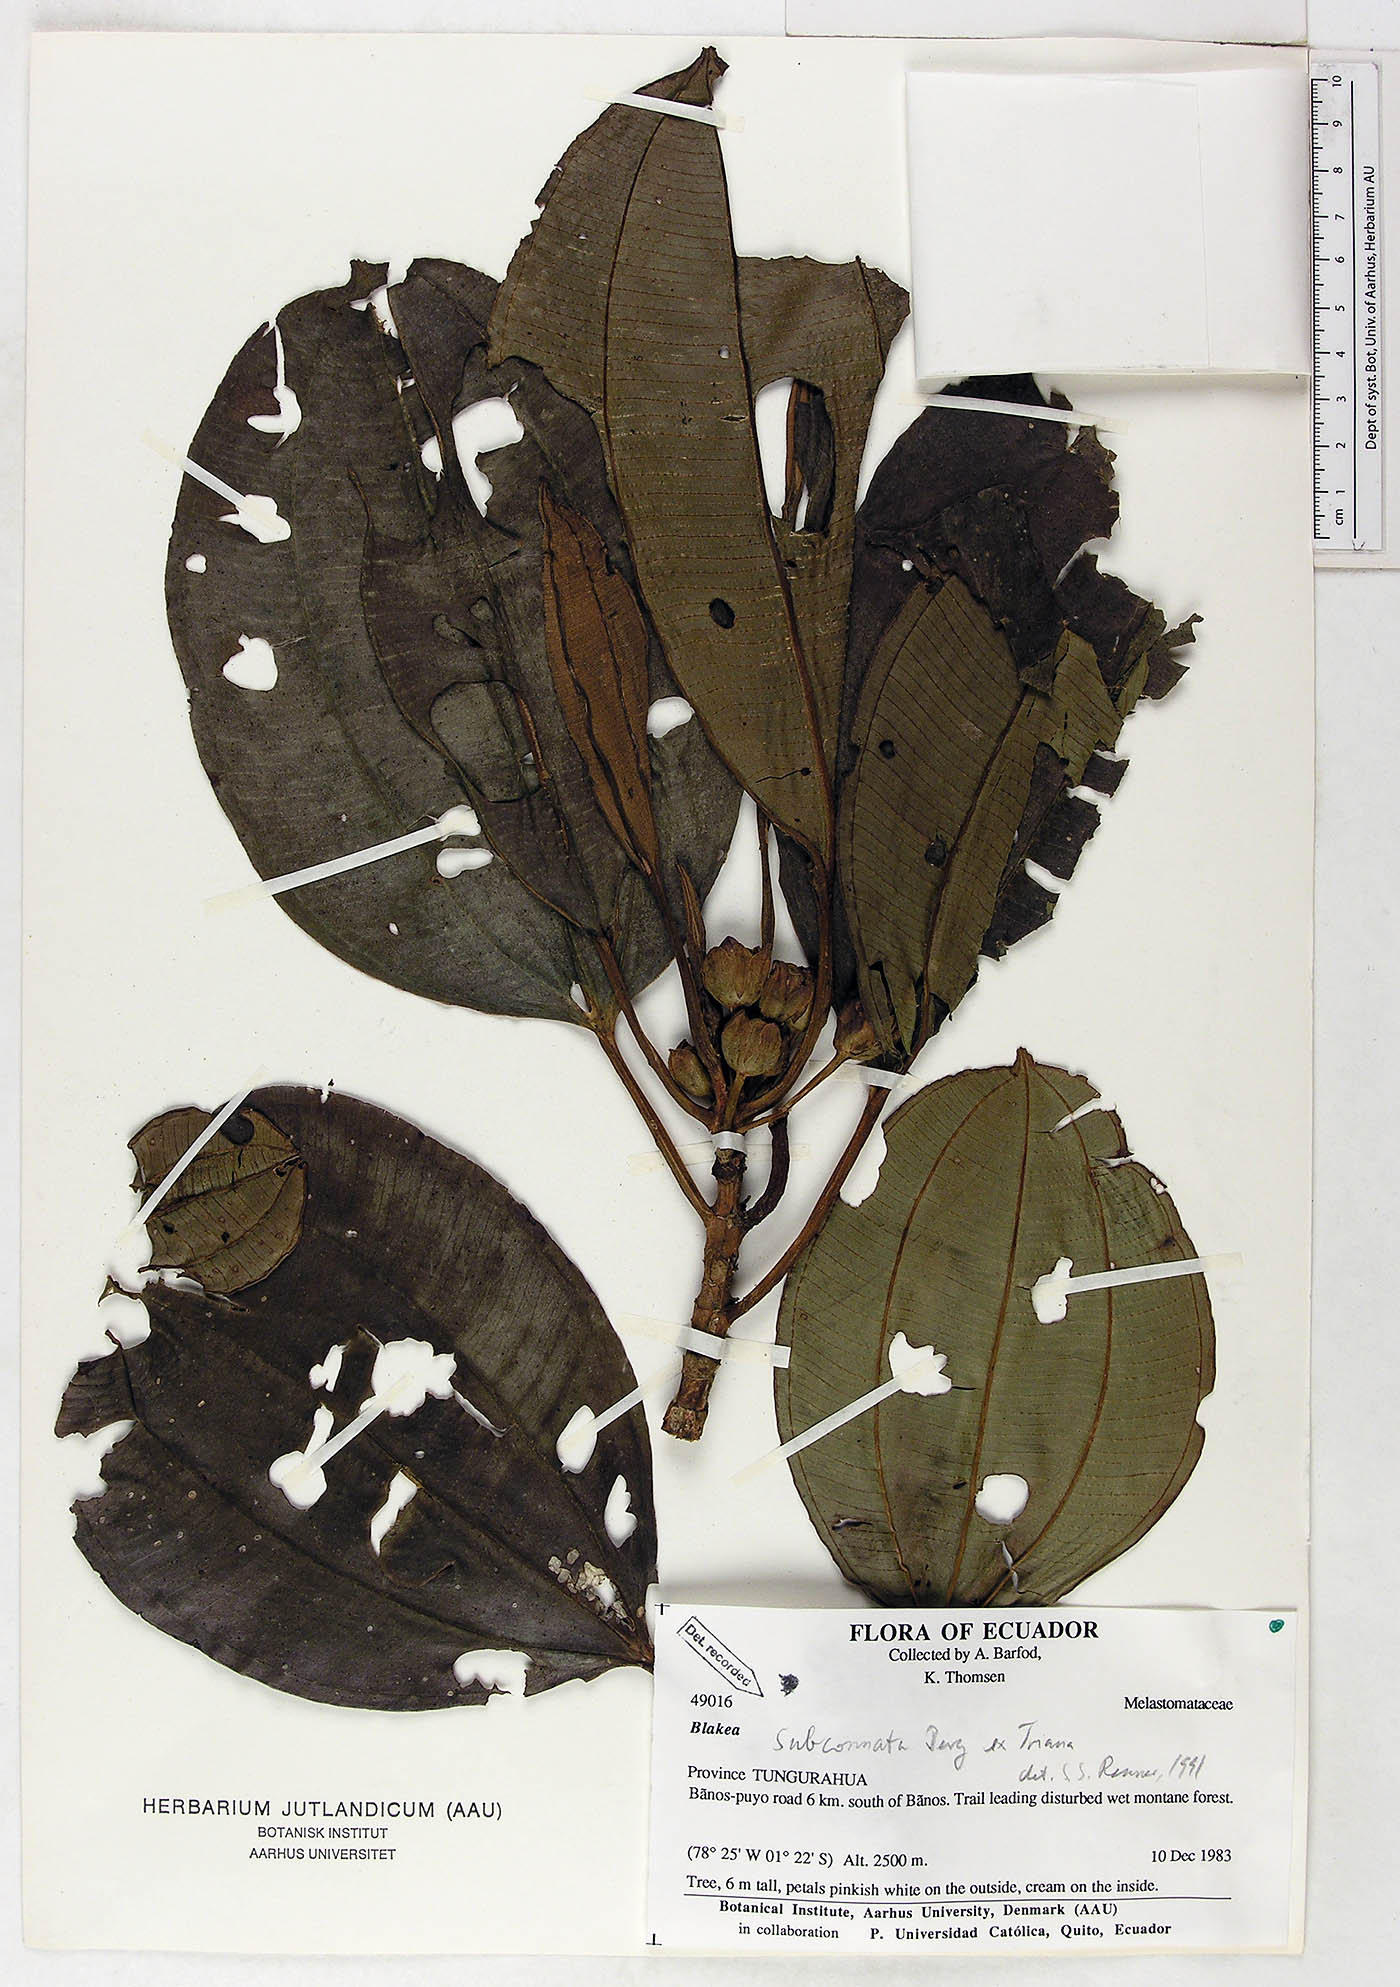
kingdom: Plantae
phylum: Tracheophyta
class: Magnoliopsida
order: Myrtales
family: Melastomataceae
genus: Blakea
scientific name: Blakea subconnata
